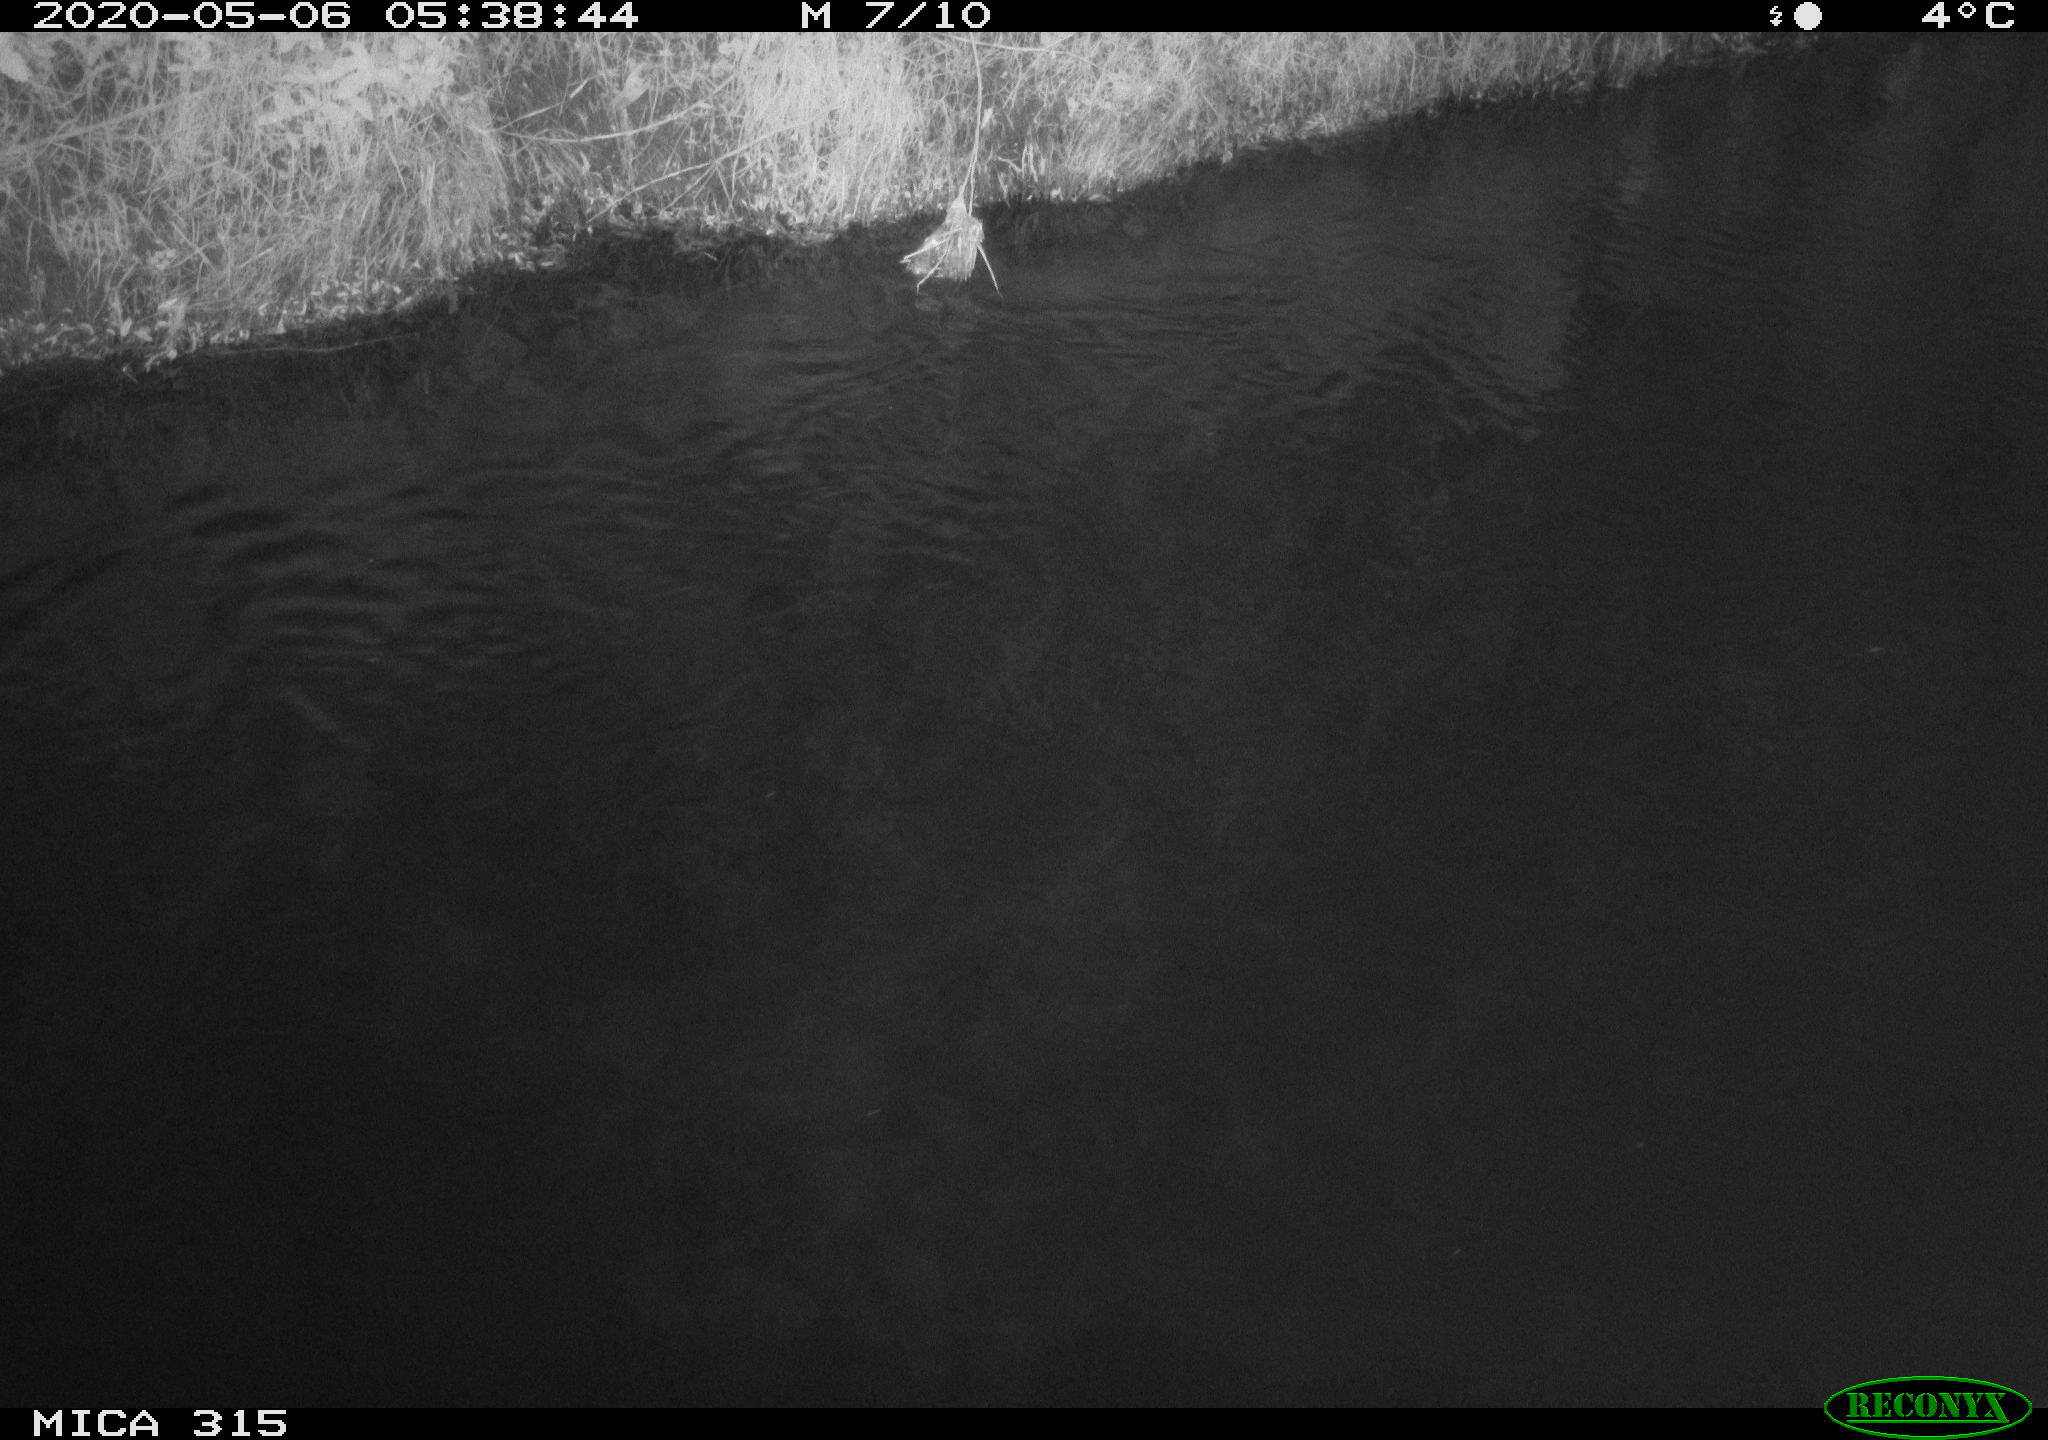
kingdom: Animalia
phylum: Chordata
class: Aves
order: Anseriformes
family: Anatidae
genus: Anas
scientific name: Anas platyrhynchos
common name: Mallard
